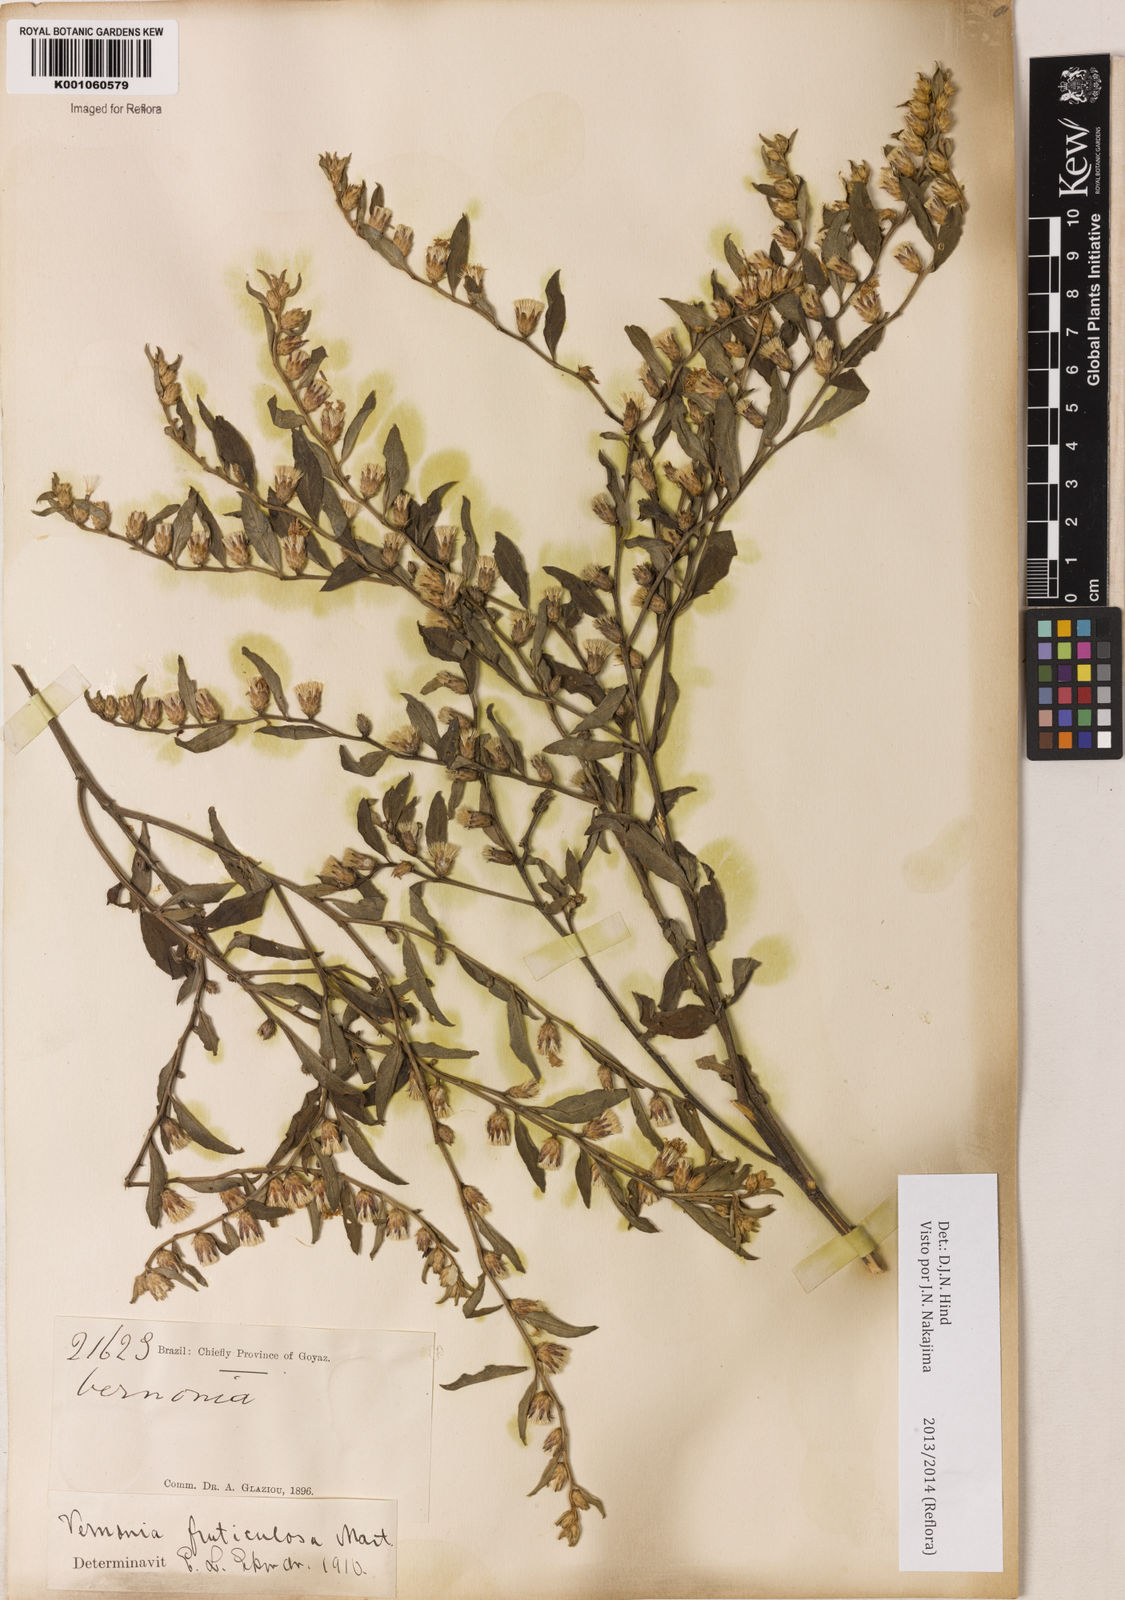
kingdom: Plantae
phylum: Tracheophyta
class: Magnoliopsida
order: Asterales
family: Asteraceae
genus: Lepidaploa
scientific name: Lepidaploa rufogrisea
